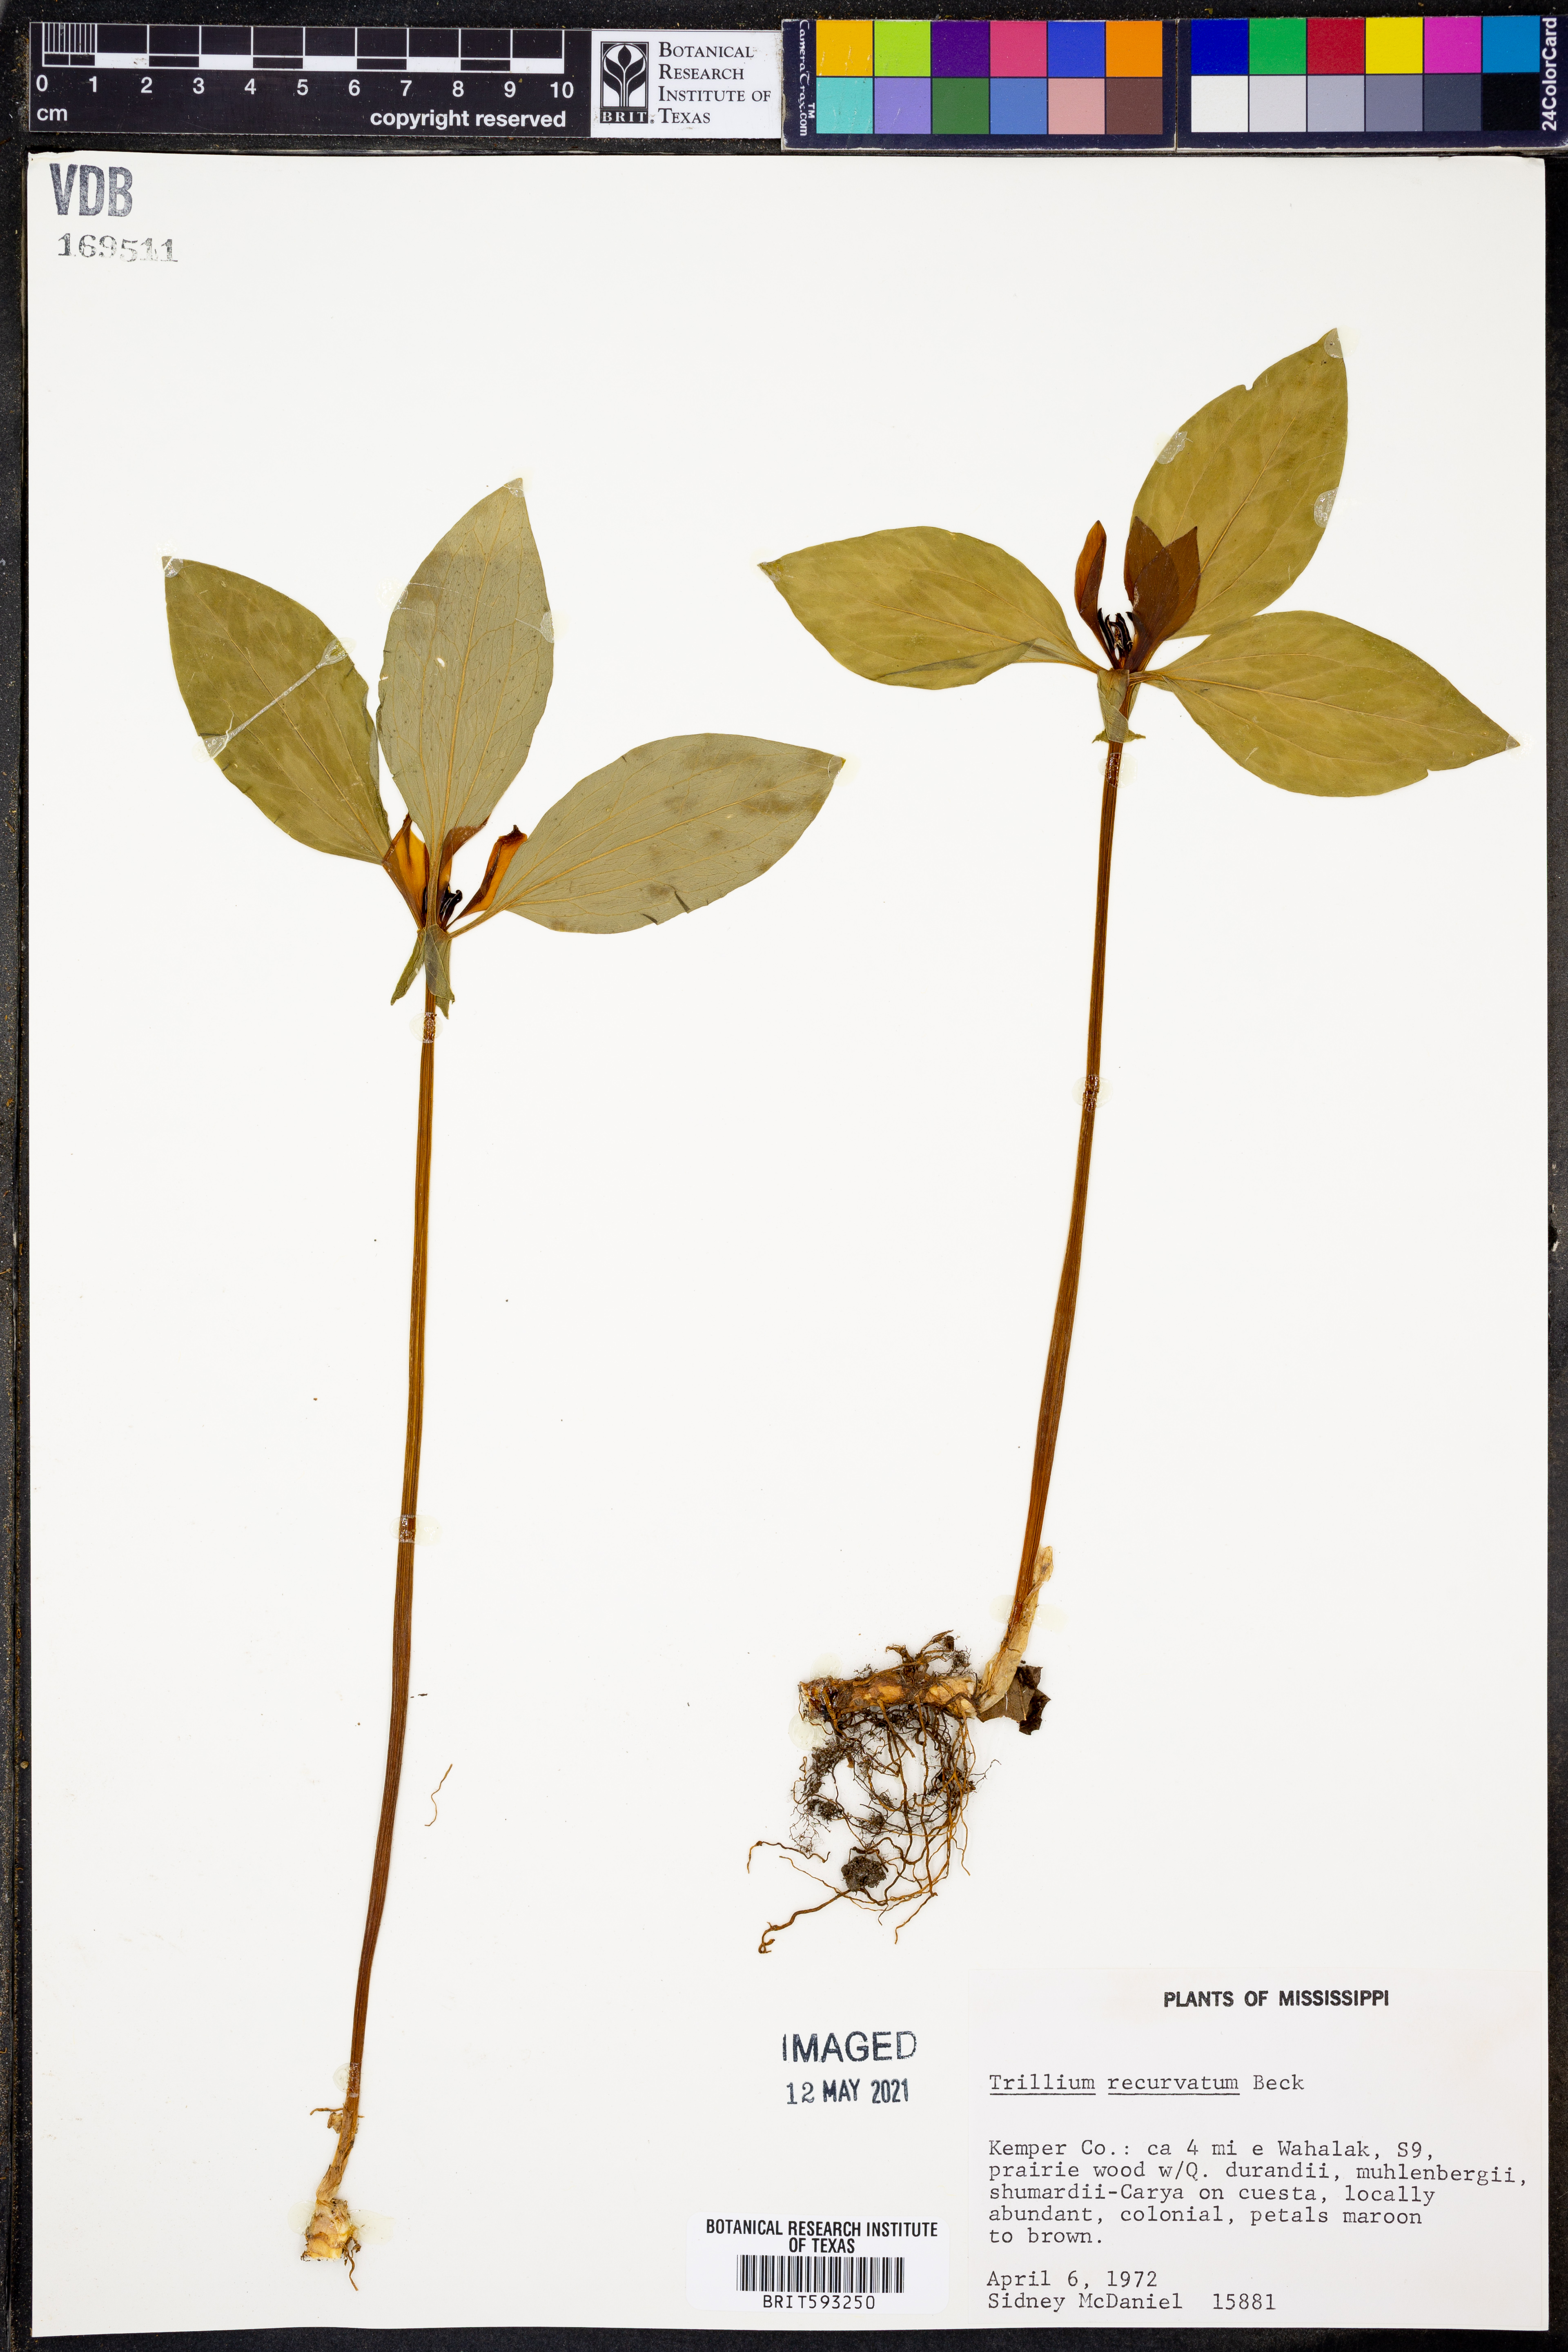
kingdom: Plantae
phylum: Tracheophyta
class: Liliopsida
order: Liliales
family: Melanthiaceae
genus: Trillium
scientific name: Trillium recurvatum
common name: Bloody butcher
